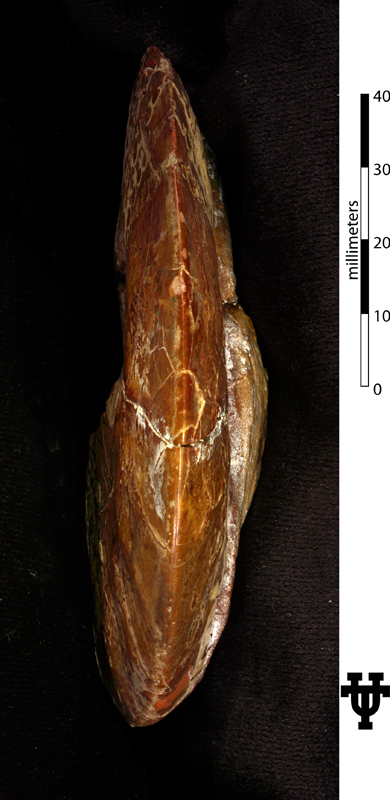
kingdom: Animalia
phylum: Mollusca
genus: Epengonoceras
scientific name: Epengonoceras
